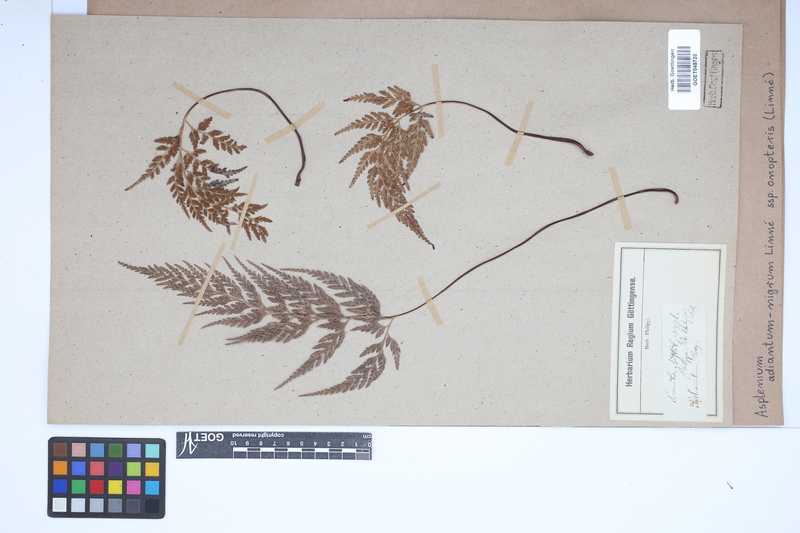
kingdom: Plantae
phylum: Tracheophyta
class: Polypodiopsida
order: Polypodiales
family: Aspleniaceae
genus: Asplenium
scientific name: Asplenium onopteris
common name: Irish spleenwort
